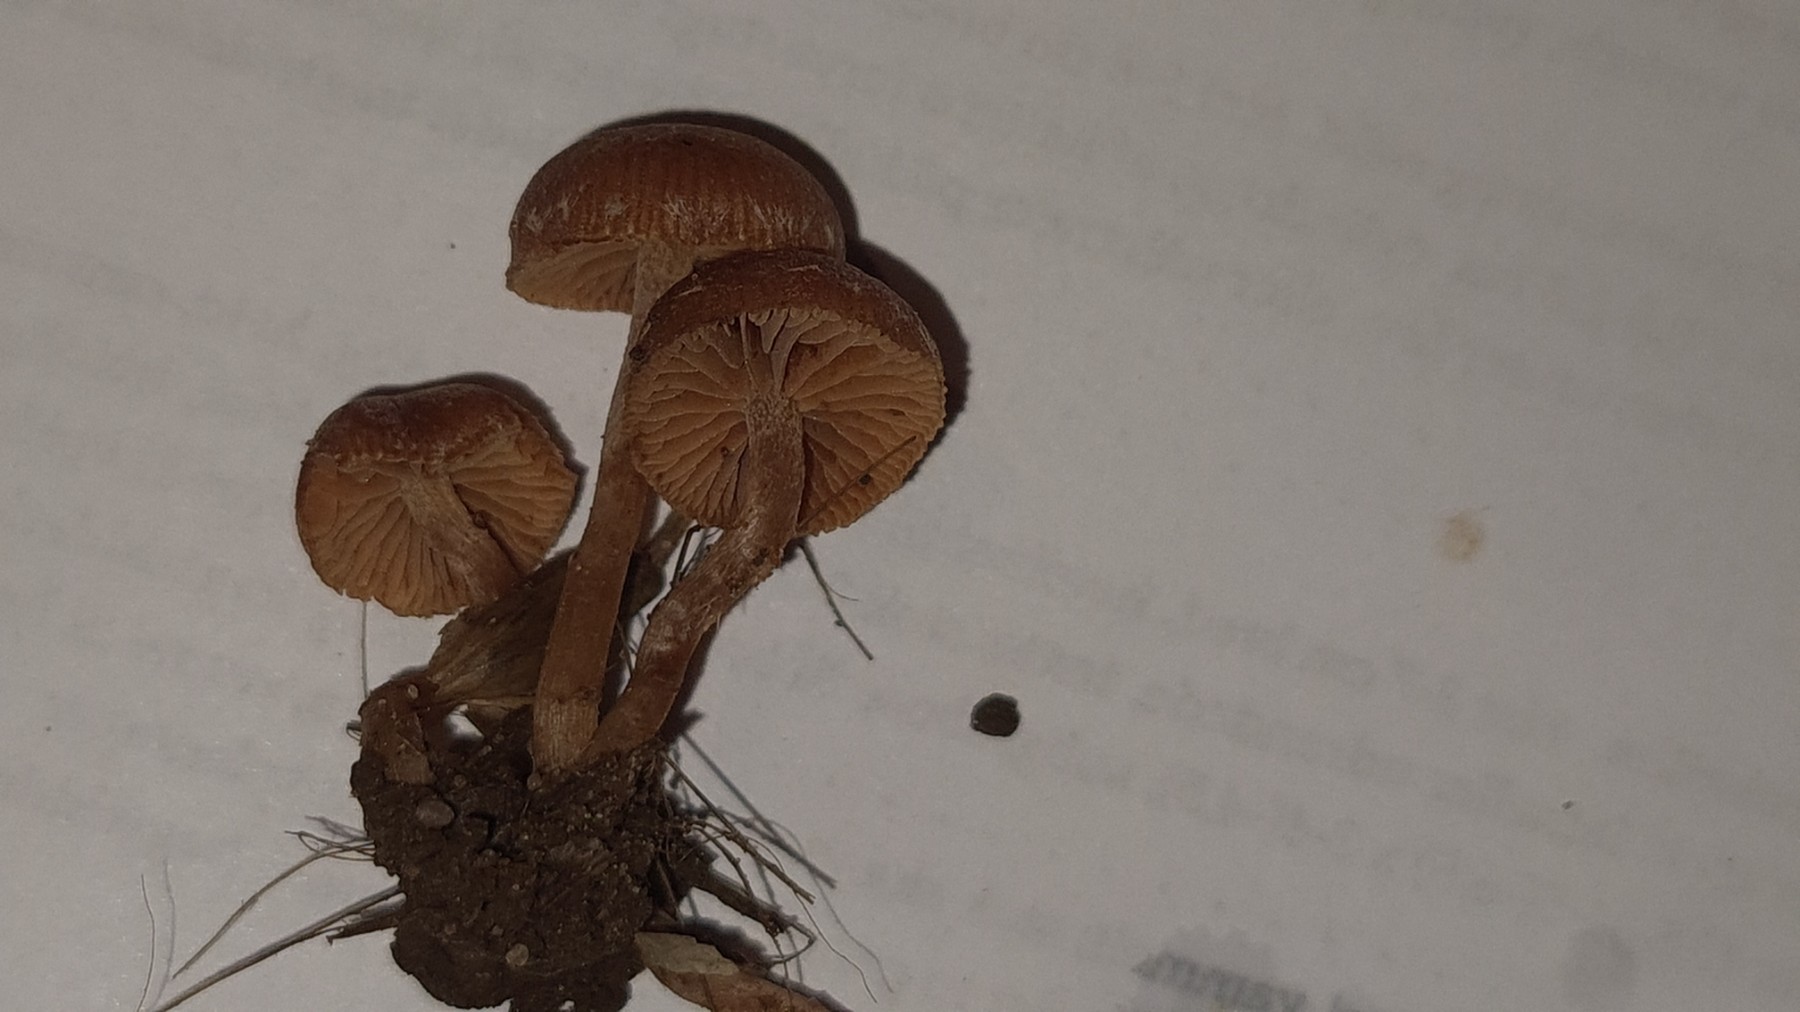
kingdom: Fungi
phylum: Basidiomycota
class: Agaricomycetes
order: Agaricales
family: Tubariaceae
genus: Tubaria
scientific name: Tubaria furfuracea
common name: kliddet fnughat
